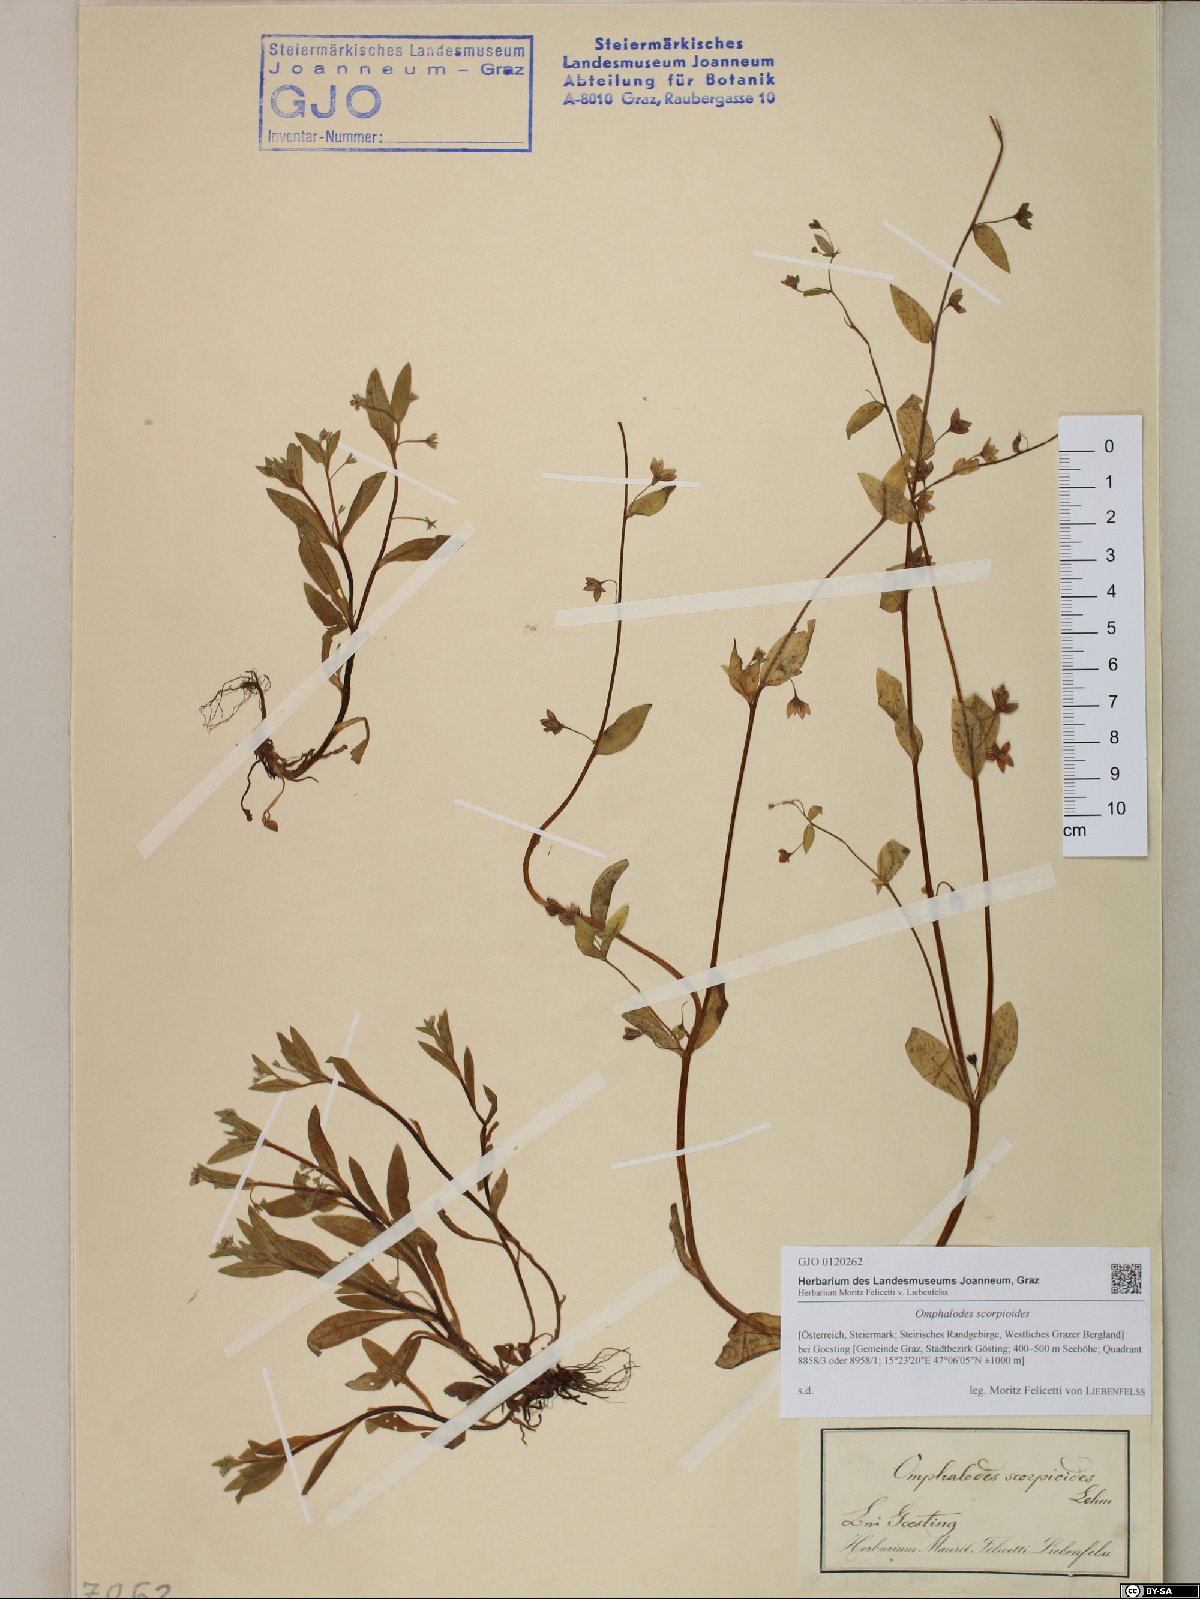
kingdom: Plantae
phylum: Tracheophyta
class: Magnoliopsida
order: Boraginales
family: Boraginaceae
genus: Memoremea
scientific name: Memoremea scorpioides
